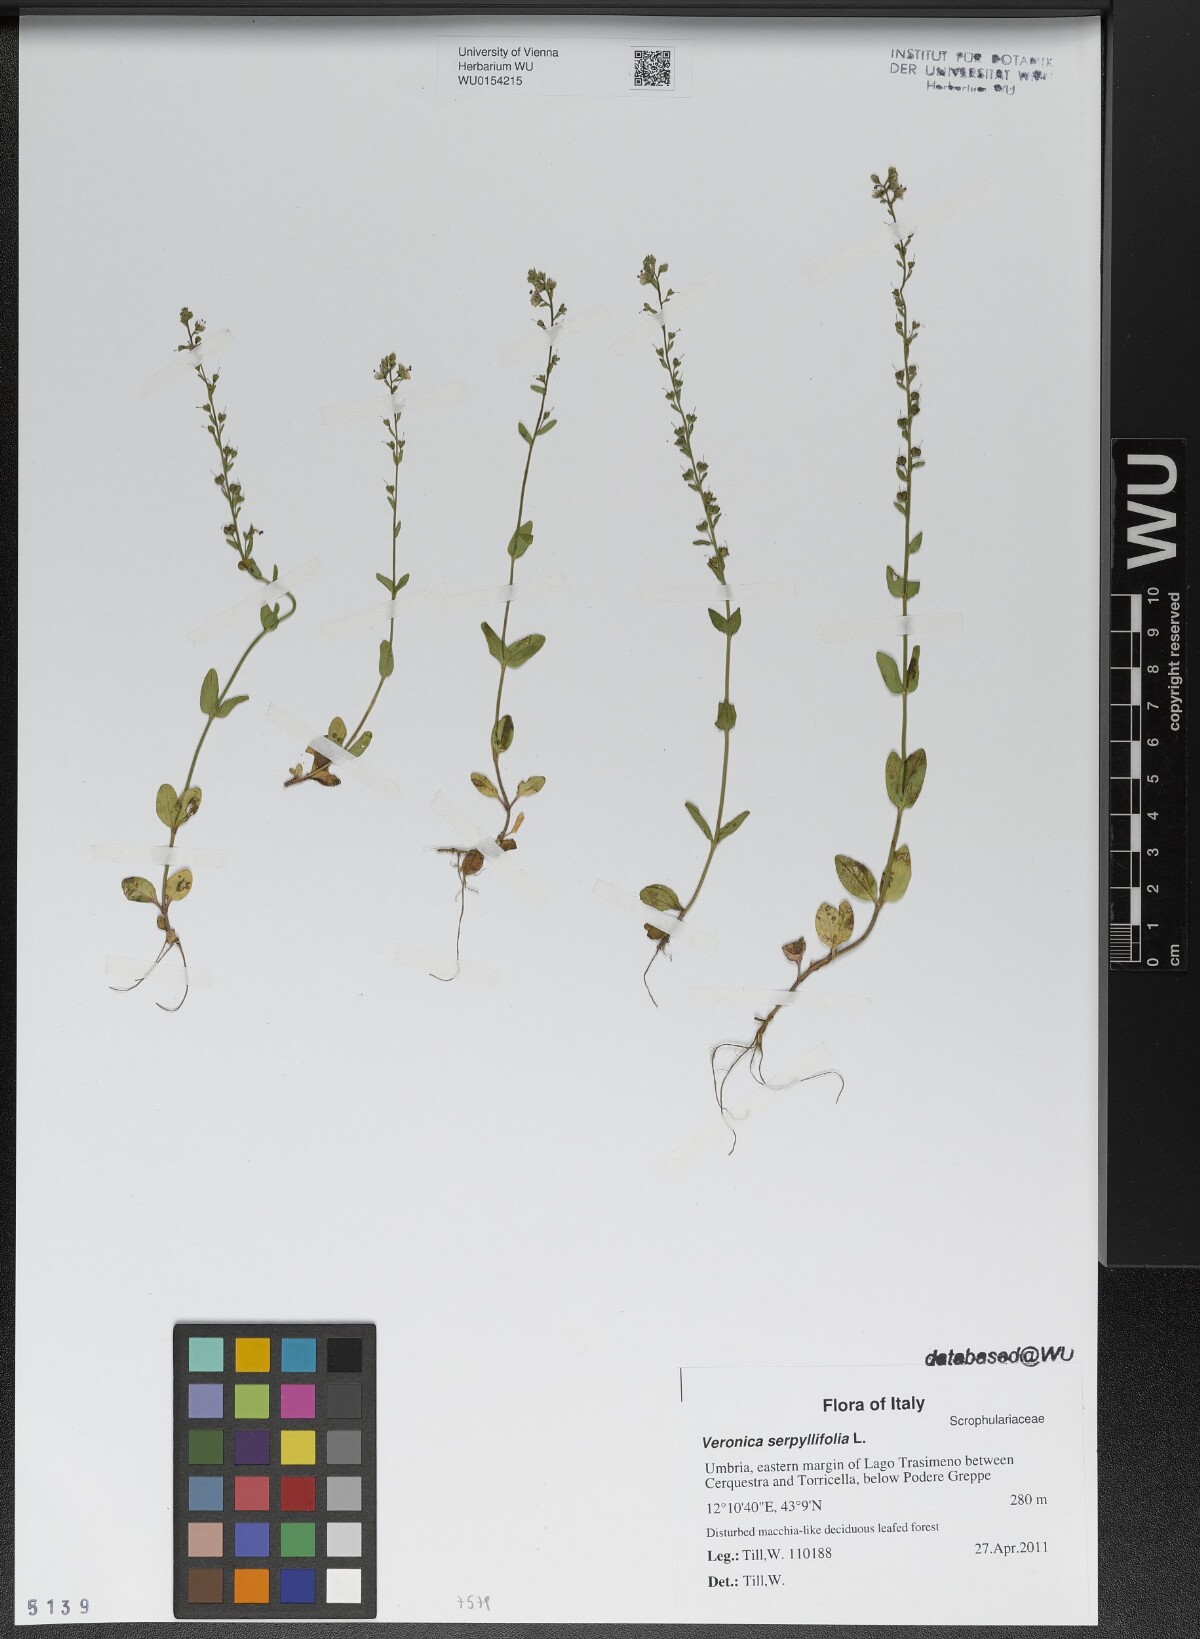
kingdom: Plantae
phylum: Tracheophyta
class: Magnoliopsida
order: Lamiales
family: Plantaginaceae
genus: Veronica
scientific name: Veronica serpyllifolia
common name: Thyme-leaved speedwell
